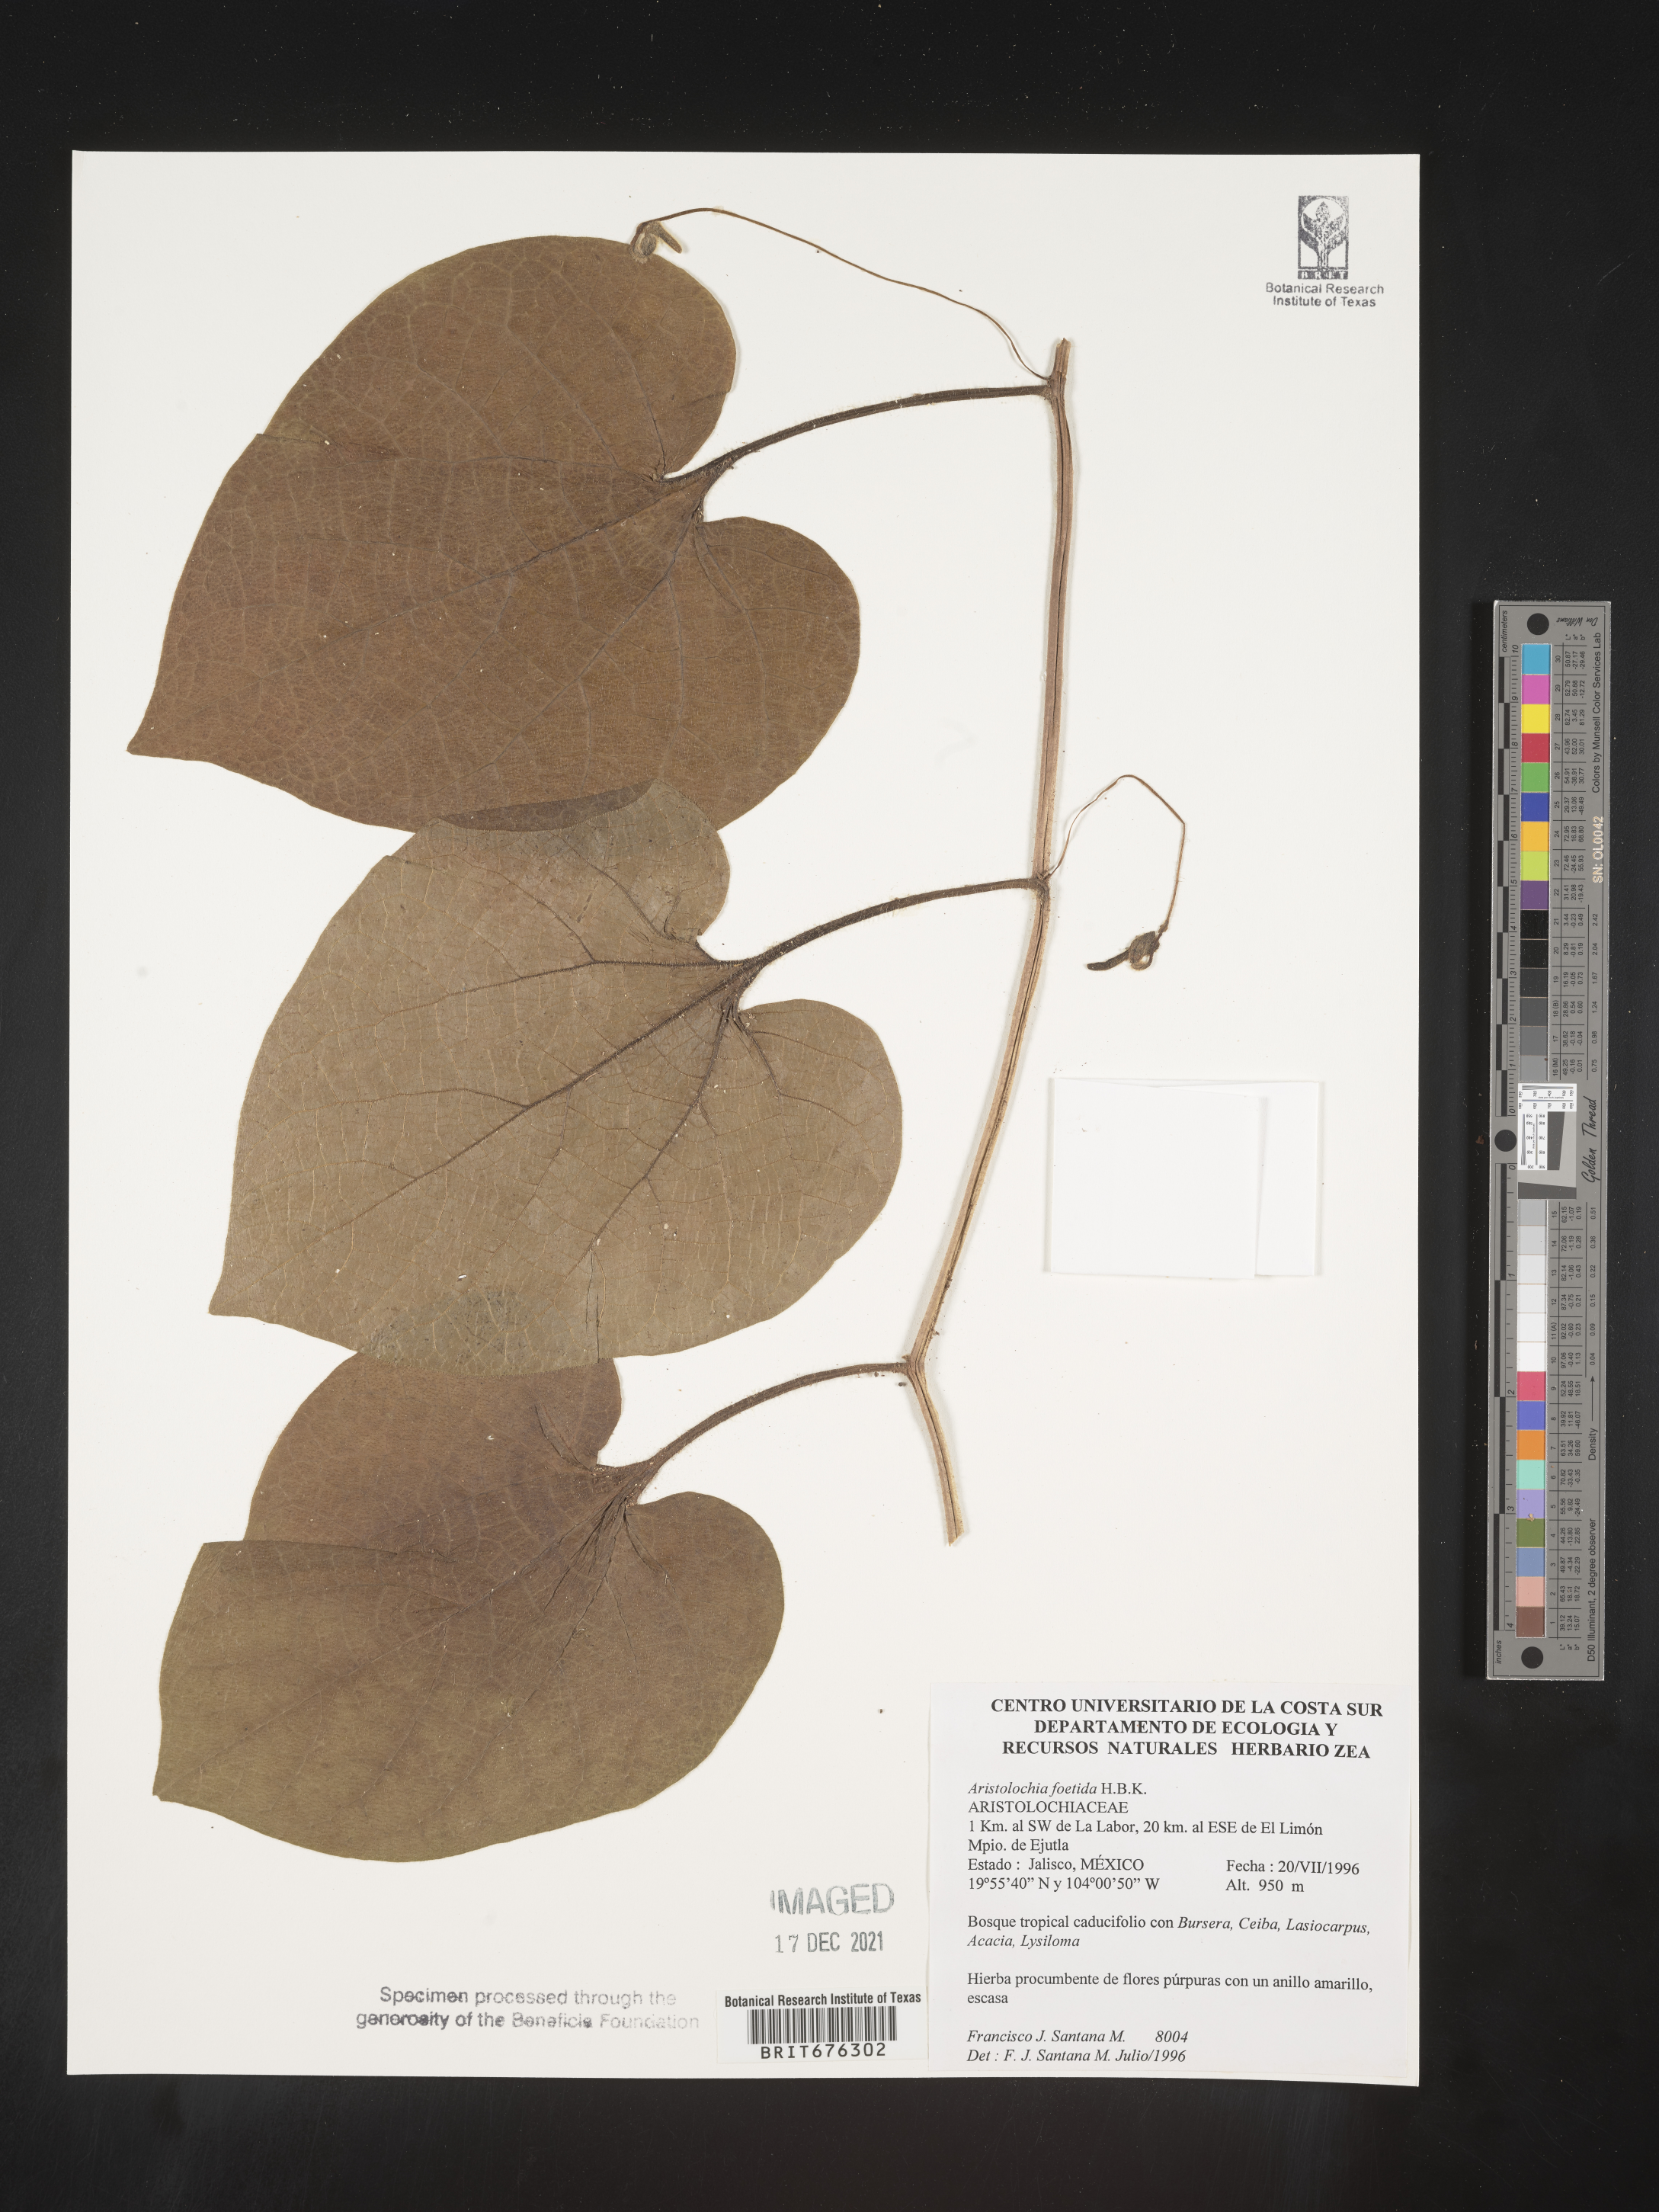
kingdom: Plantae
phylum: Tracheophyta
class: Magnoliopsida
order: Piperales
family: Aristolochiaceae
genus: Aristolochia
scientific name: Aristolochia
